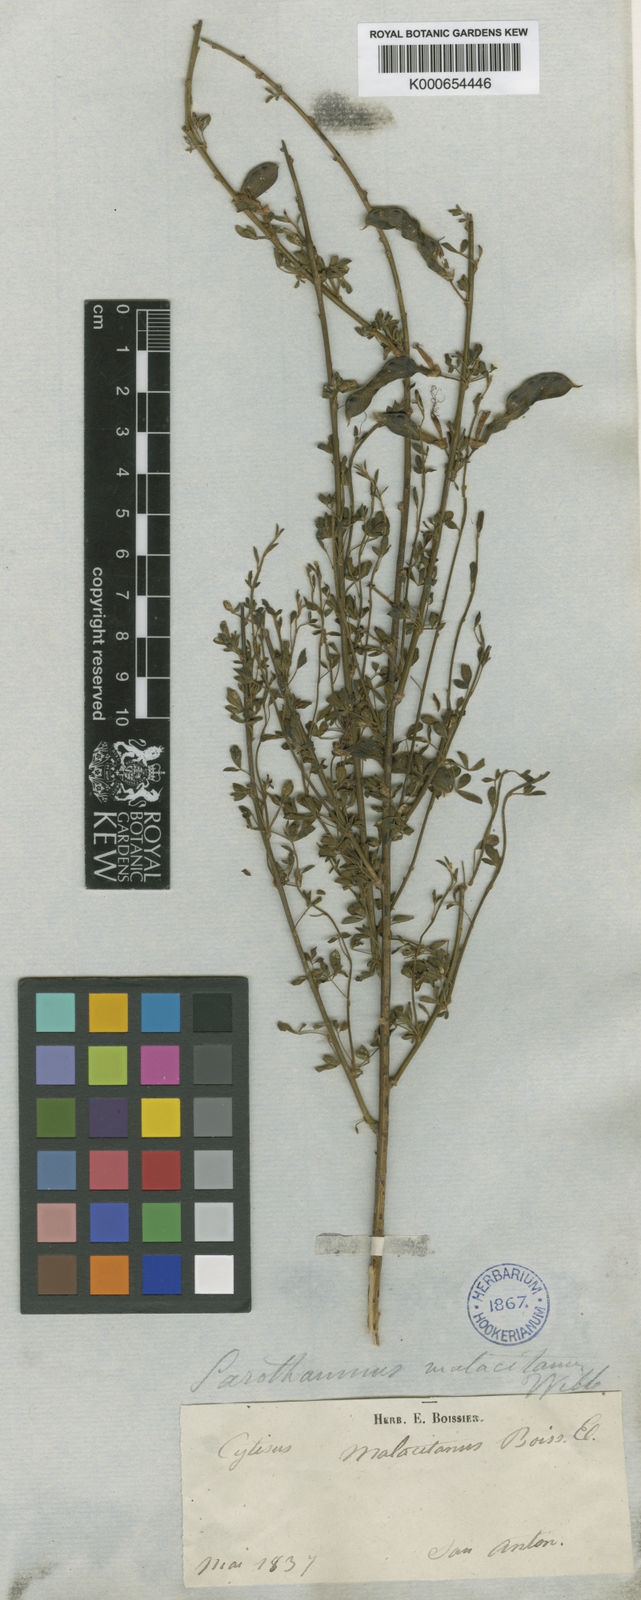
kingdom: Plantae
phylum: Tracheophyta
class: Magnoliopsida
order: Fabales
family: Fabaceae
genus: Cytisus
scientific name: Cytisus malacitanus
